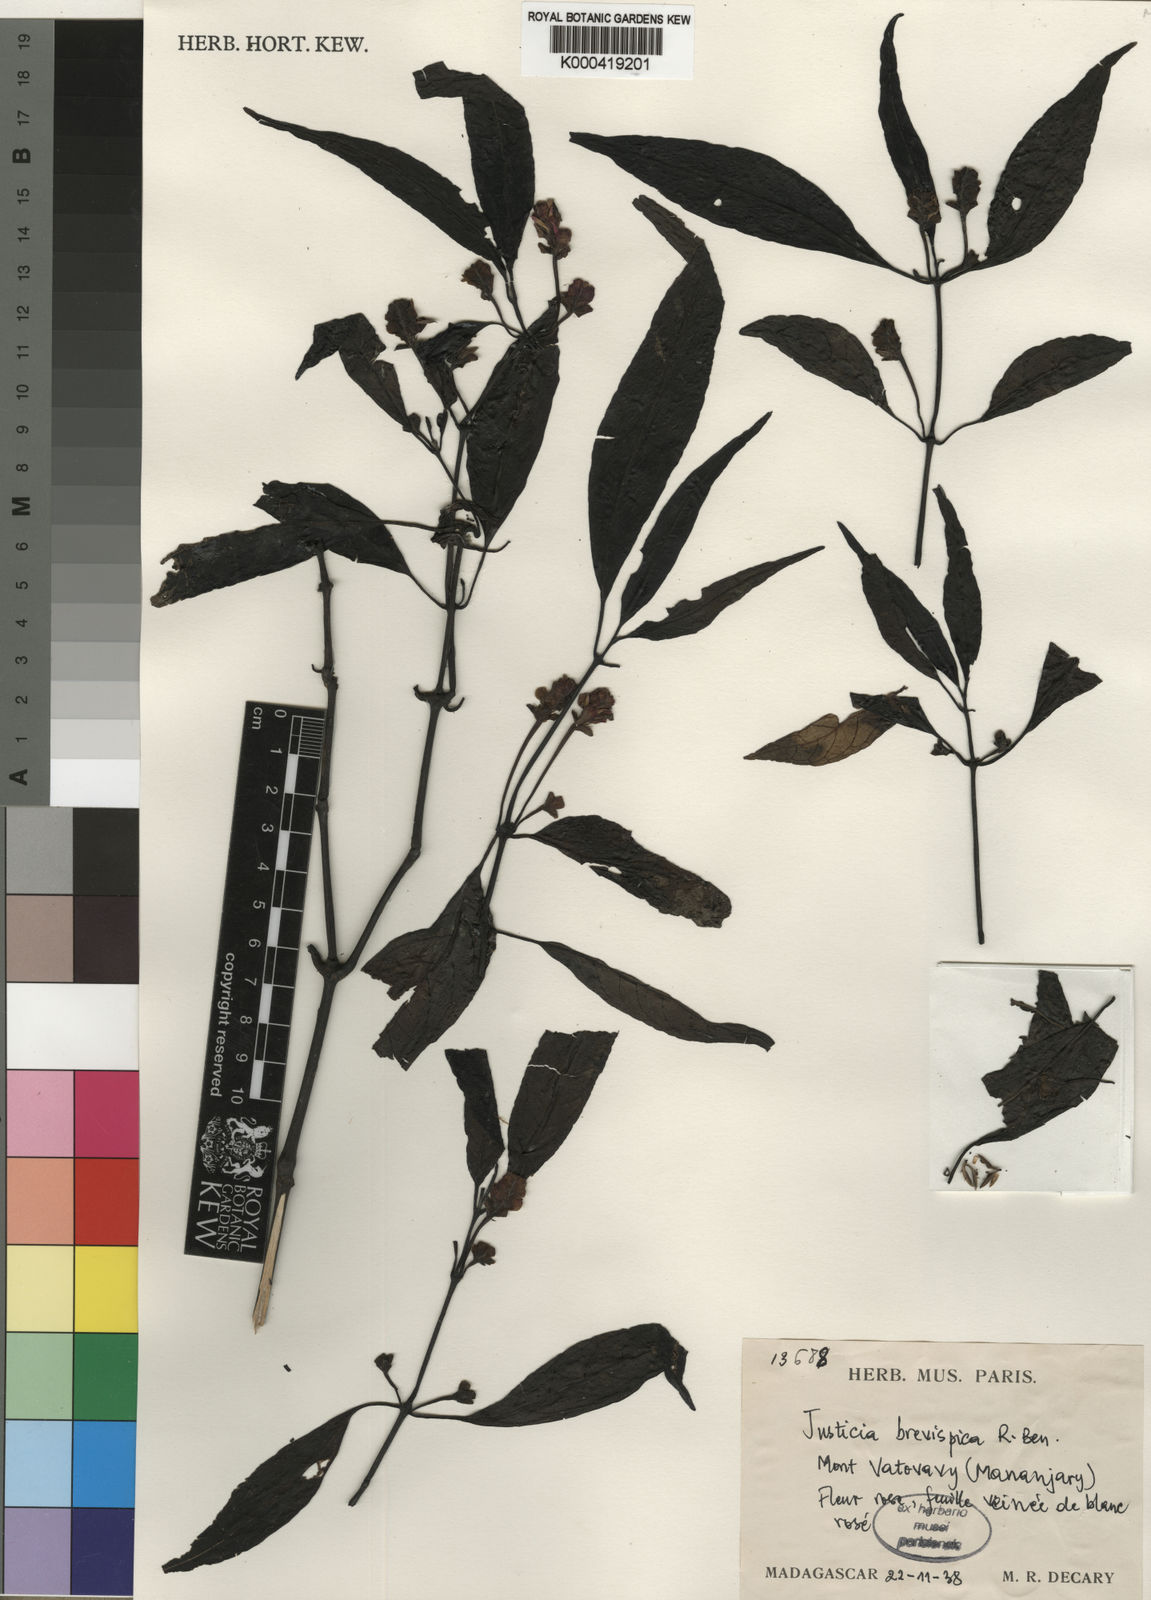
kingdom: Plantae
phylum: Tracheophyta
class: Magnoliopsida
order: Lamiales
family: Acanthaceae
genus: Justicia
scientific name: Justicia brevispica
